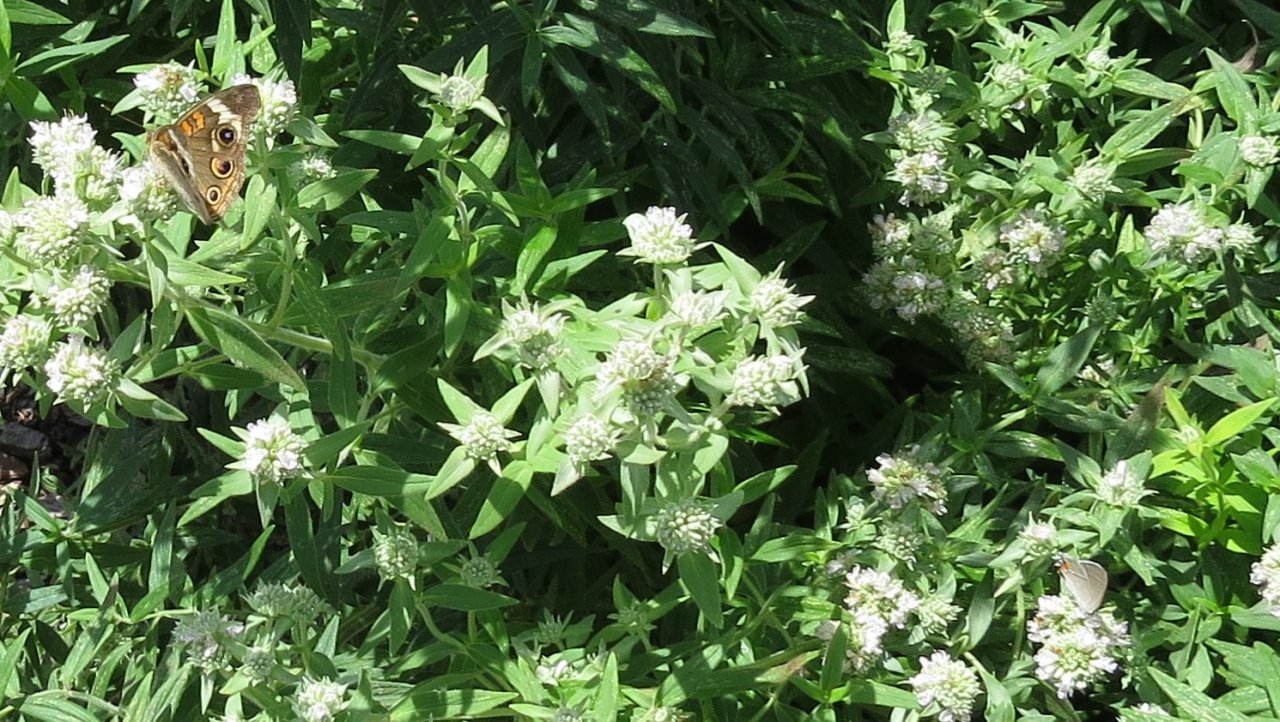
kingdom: Animalia
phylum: Arthropoda
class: Insecta
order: Lepidoptera
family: Lycaenidae
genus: Strymon
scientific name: Strymon melinus
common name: Gray Hairstreak
